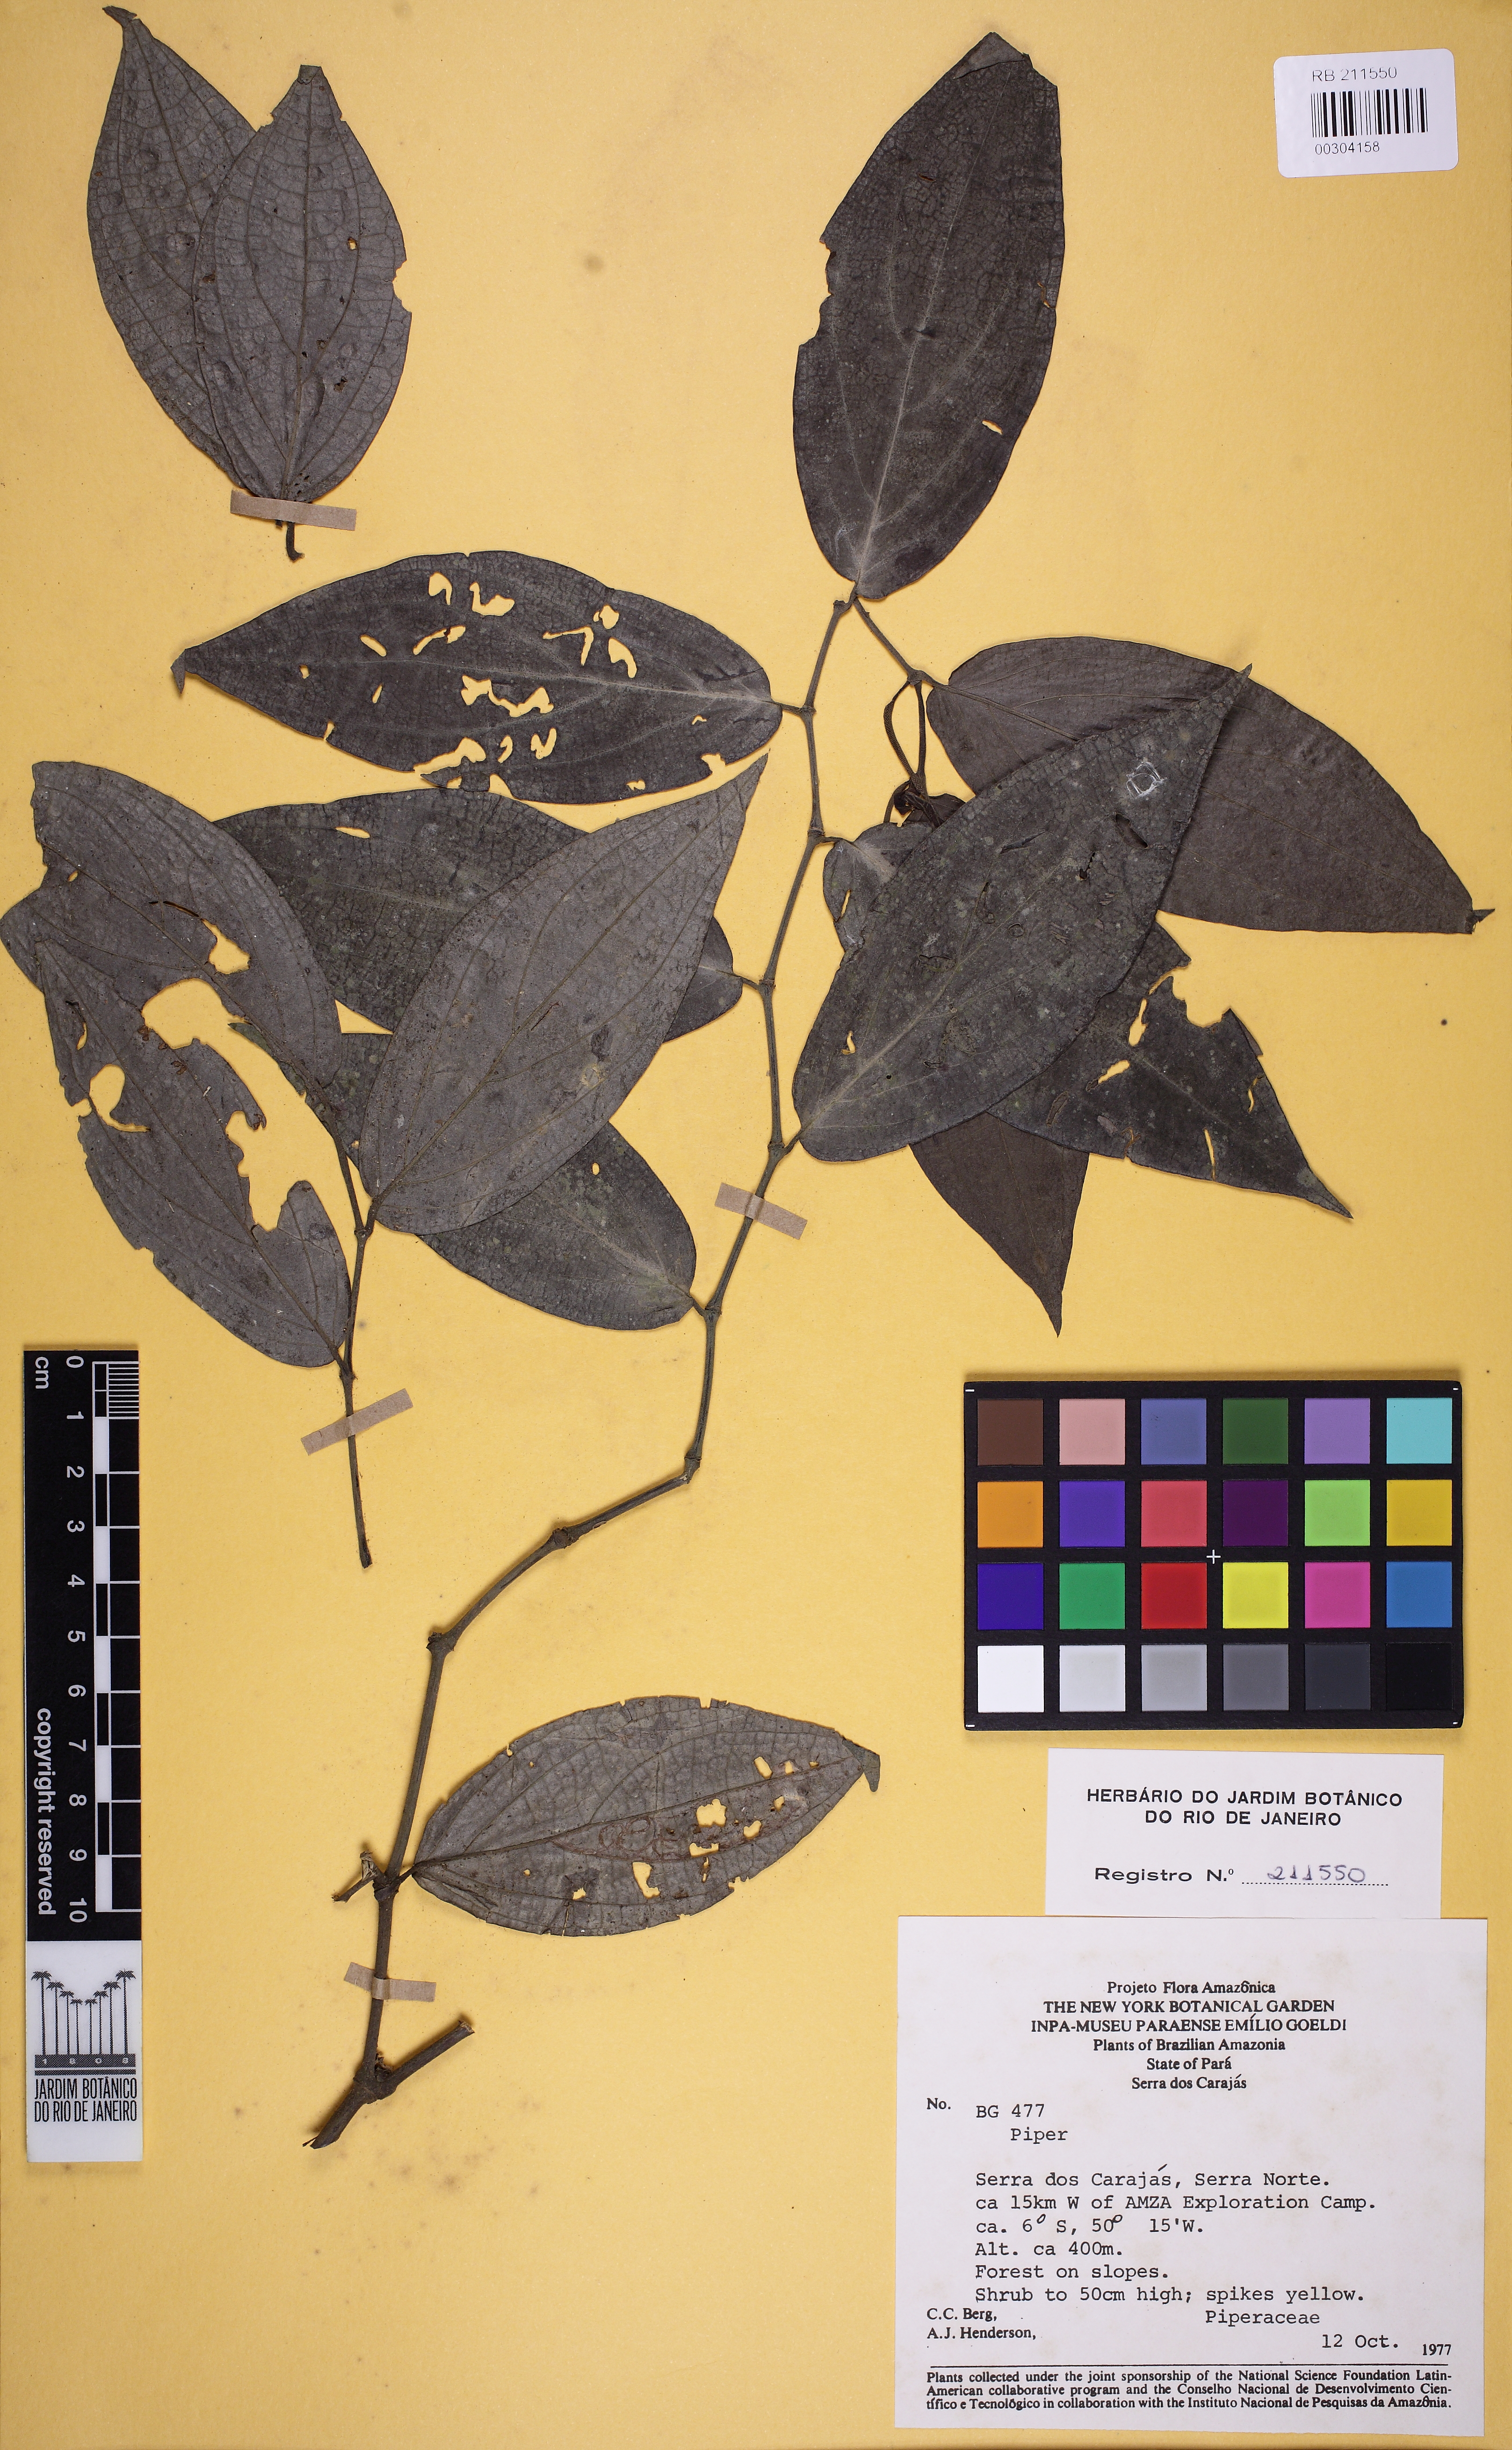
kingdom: Plantae
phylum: Tracheophyta
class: Magnoliopsida
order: Piperales
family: Piperaceae
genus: Piper
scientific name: Piper aleyreanum
